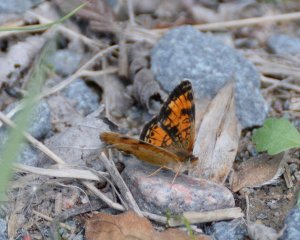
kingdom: Animalia
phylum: Arthropoda
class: Insecta
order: Lepidoptera
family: Nymphalidae
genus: Phyciodes
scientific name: Phyciodes tharos
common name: Northern Crescent
